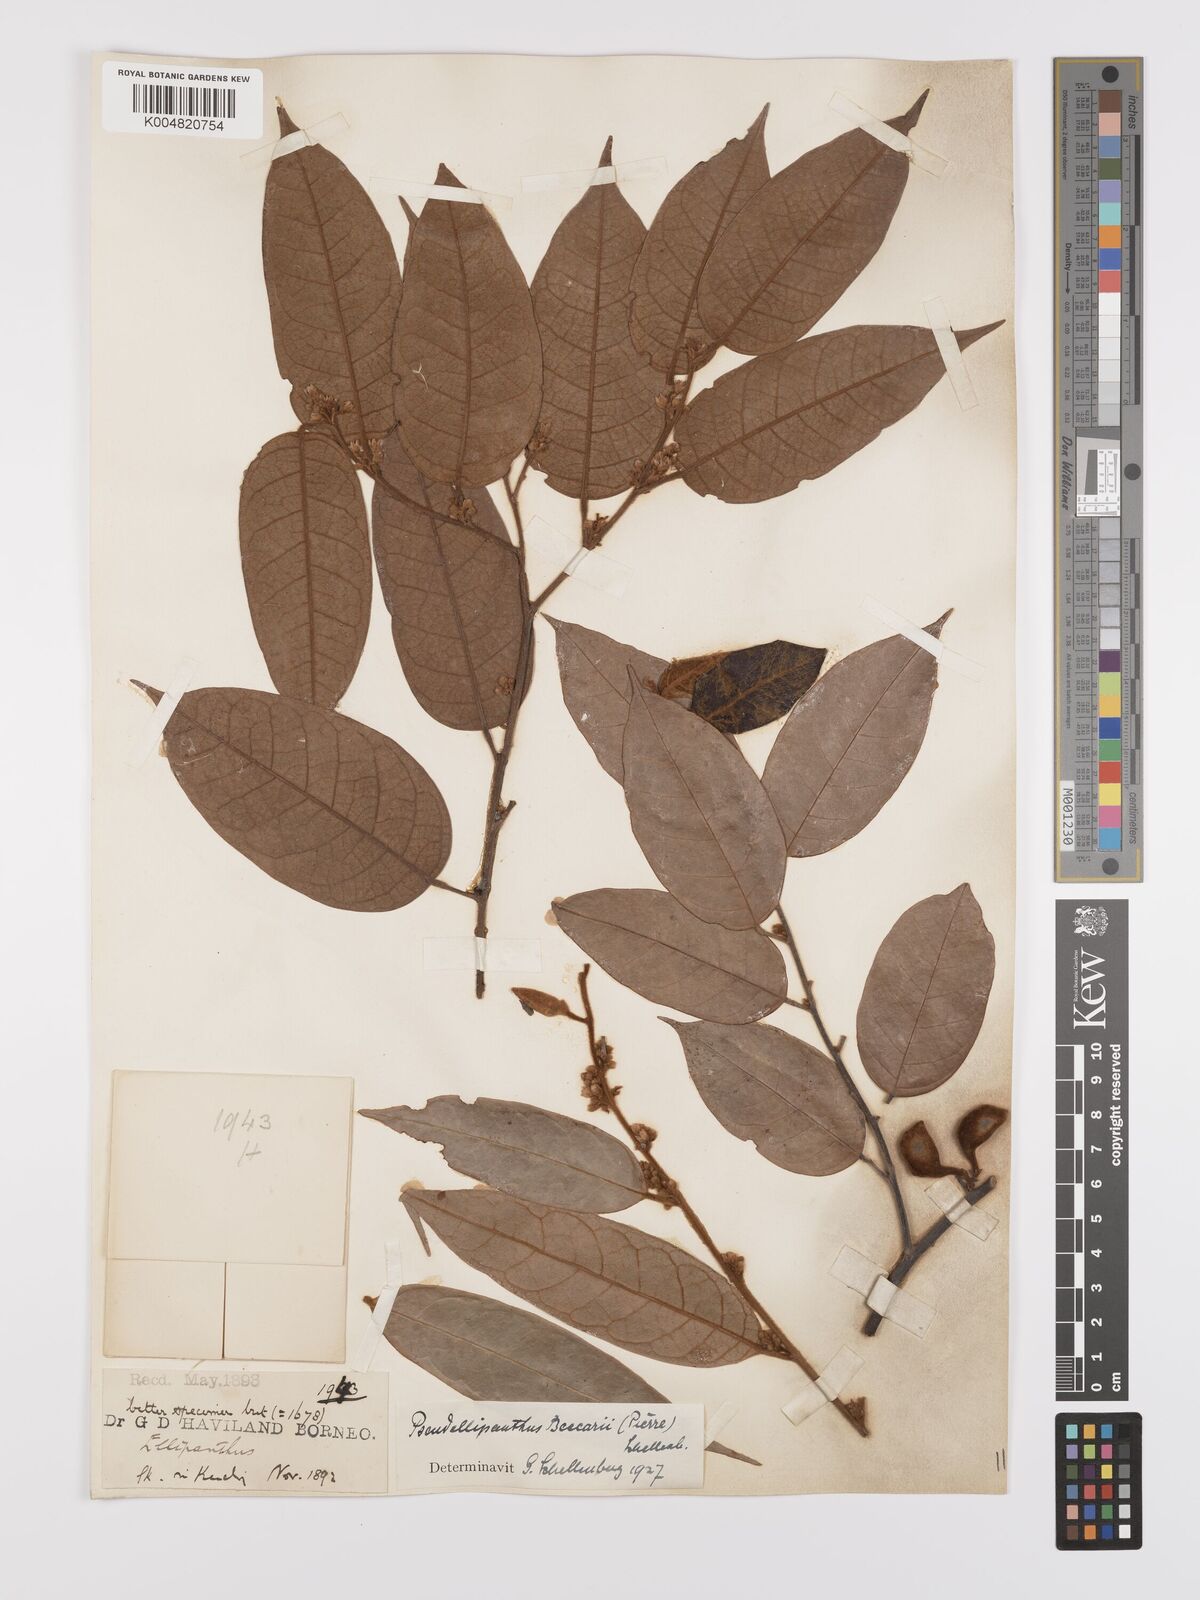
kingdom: Plantae
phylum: Tracheophyta
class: Magnoliopsida
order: Oxalidales
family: Connaraceae
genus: Ellipanthus
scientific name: Ellipanthus beccarii
